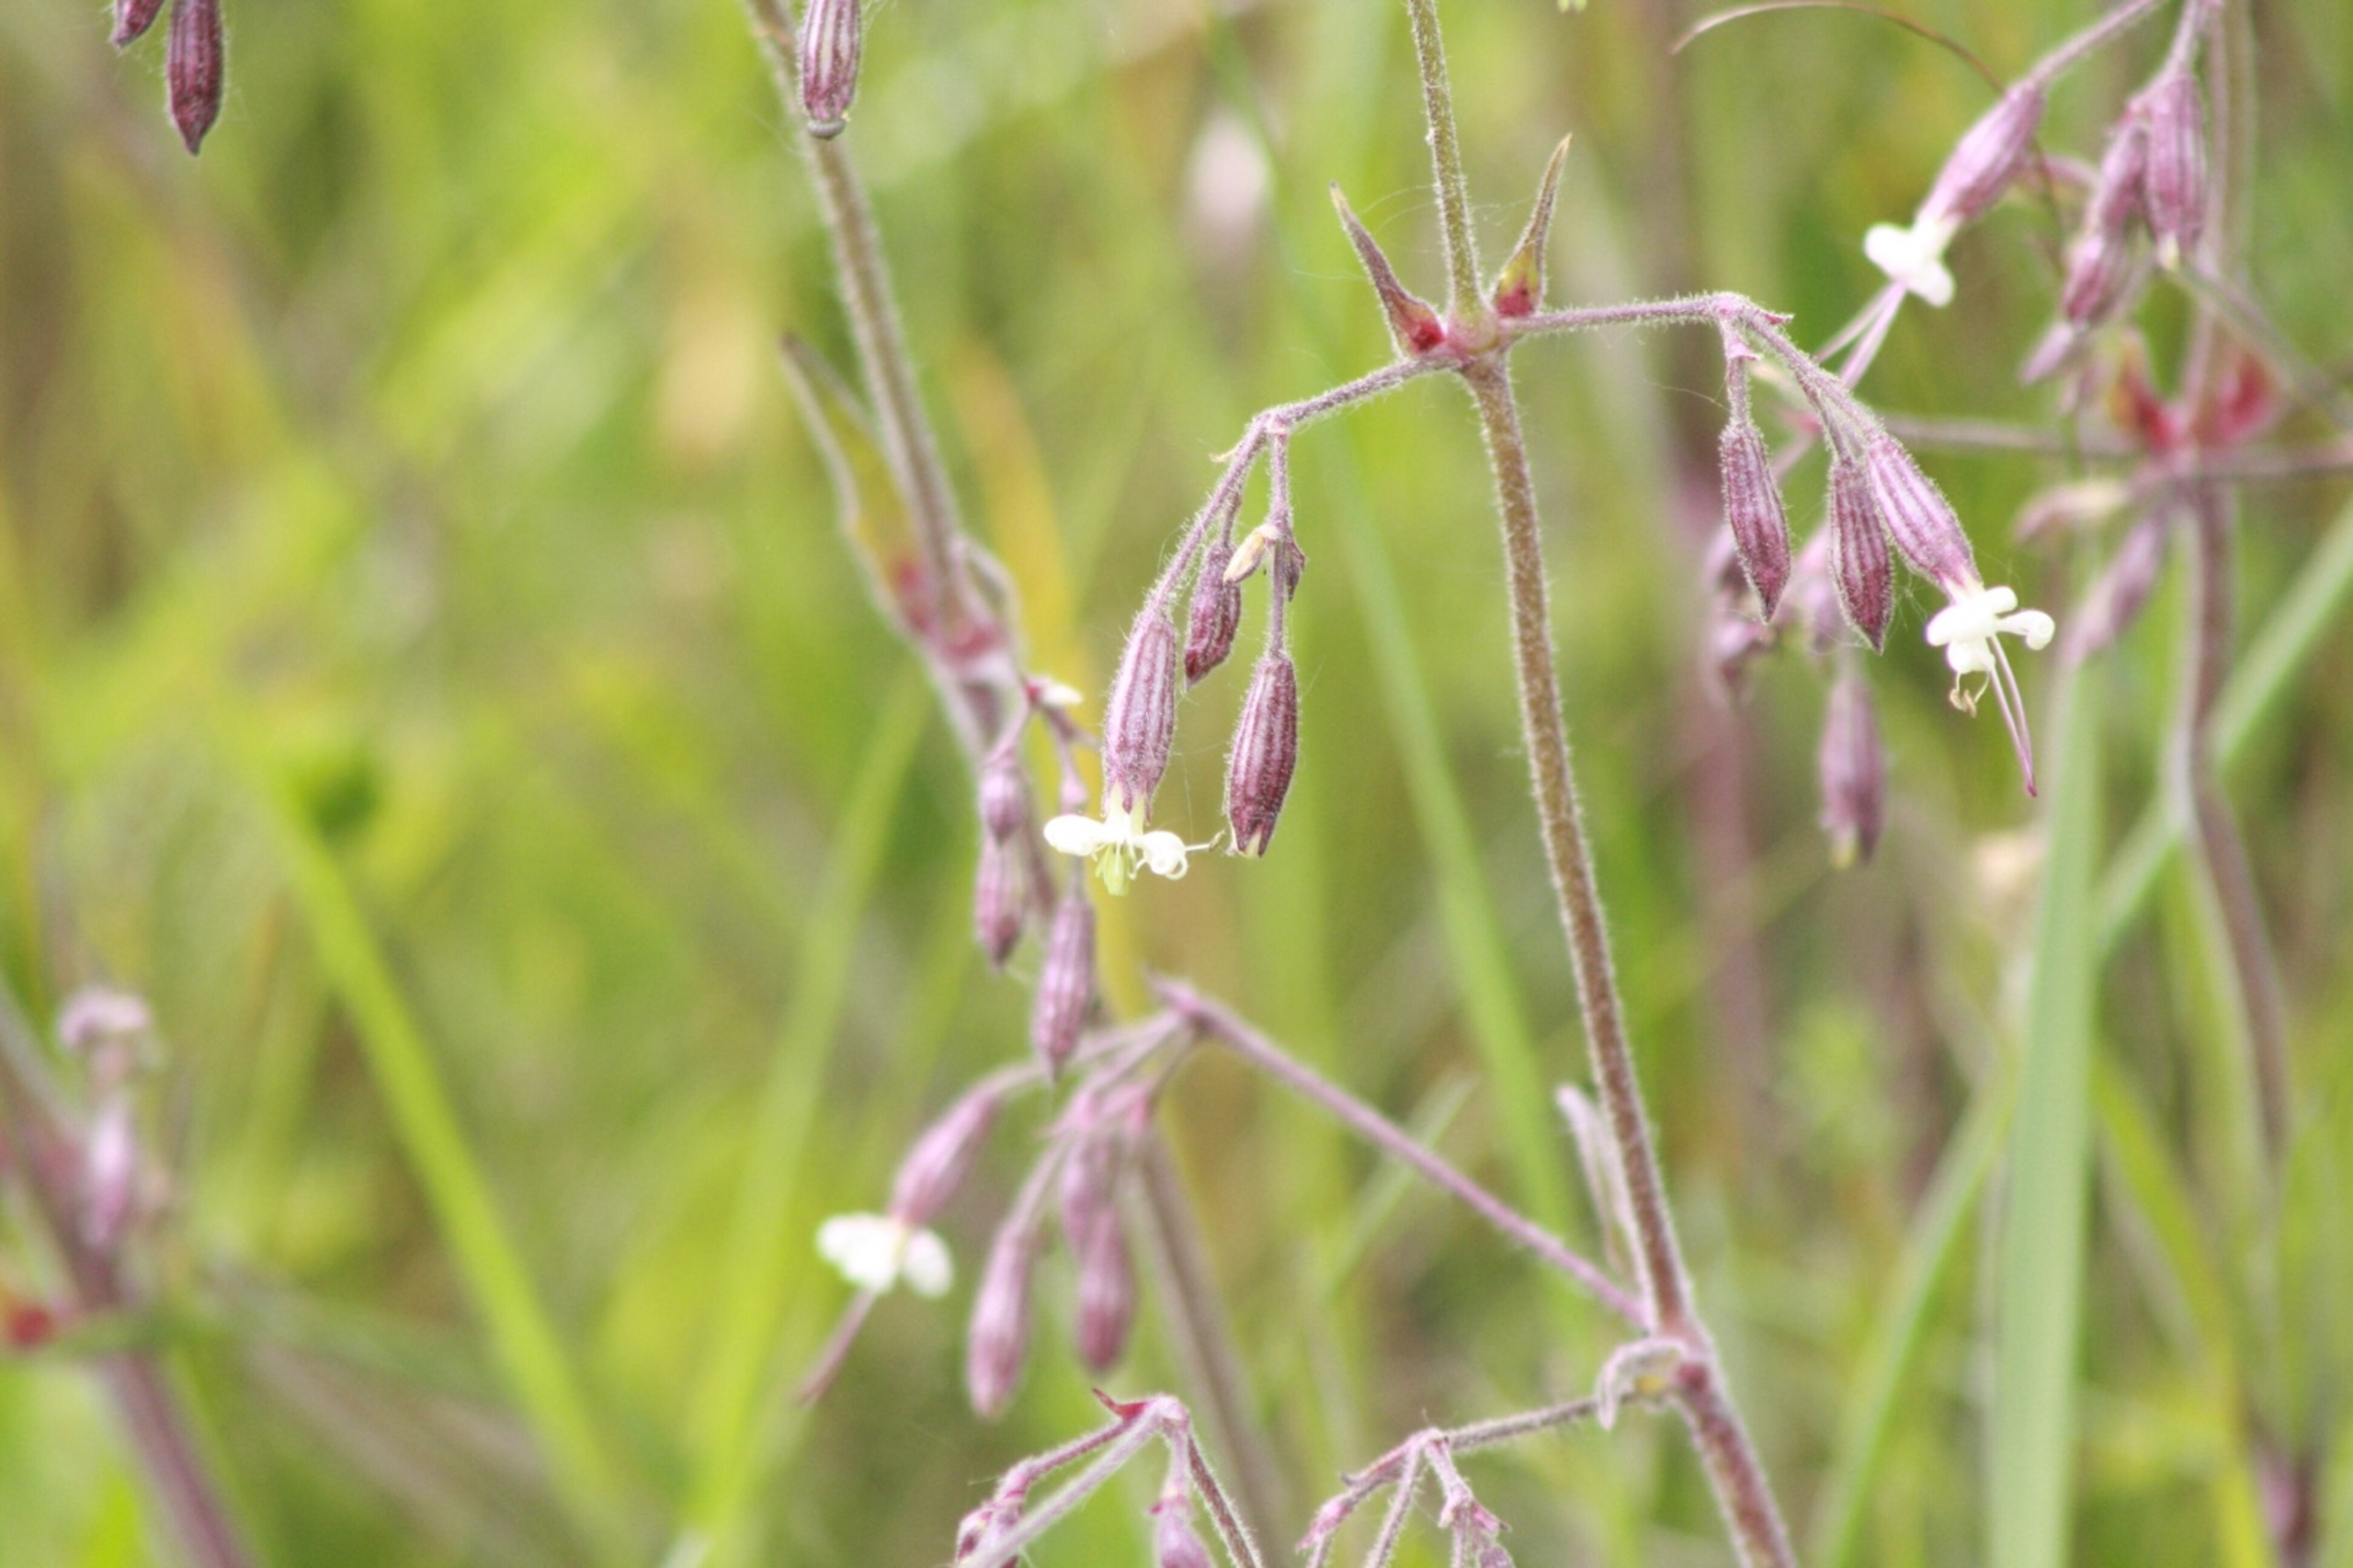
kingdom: Plantae
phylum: Tracheophyta
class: Magnoliopsida
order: Caryophyllales
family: Caryophyllaceae
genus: Silene
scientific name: Silene nutans
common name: Nikkende limurt
